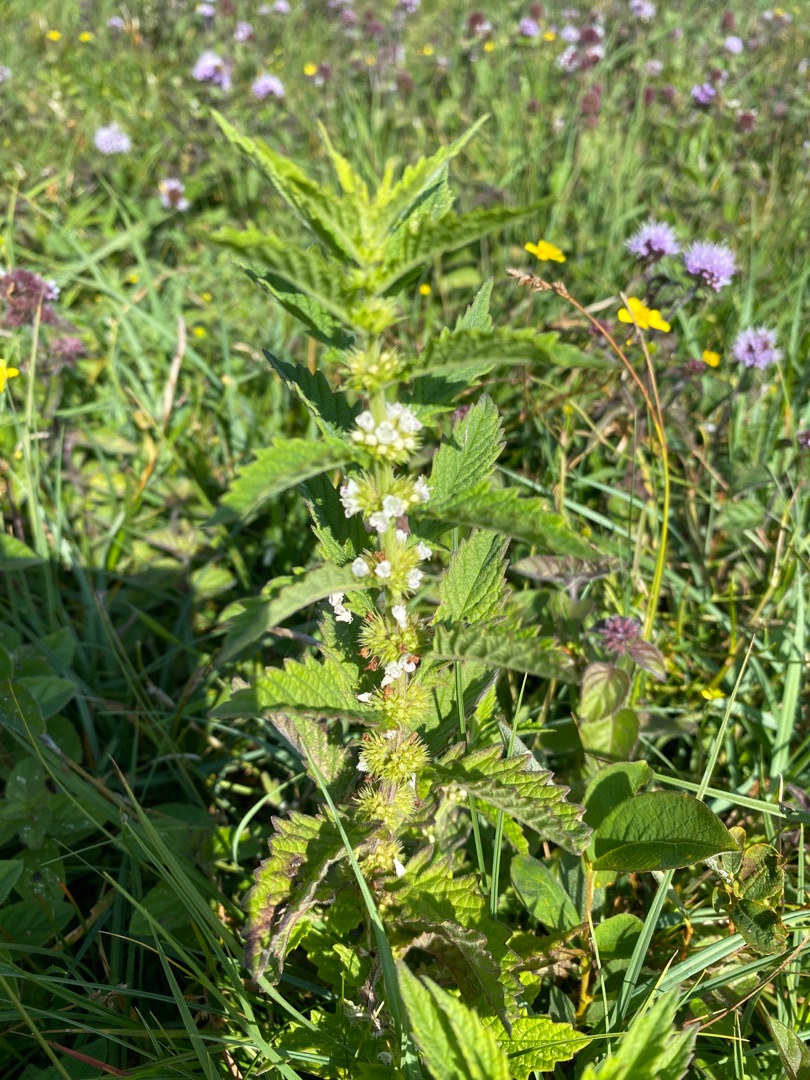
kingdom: Plantae
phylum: Tracheophyta
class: Magnoliopsida
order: Lamiales
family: Lamiaceae
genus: Lycopus
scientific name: Lycopus europaeus
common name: Sværtevæld
